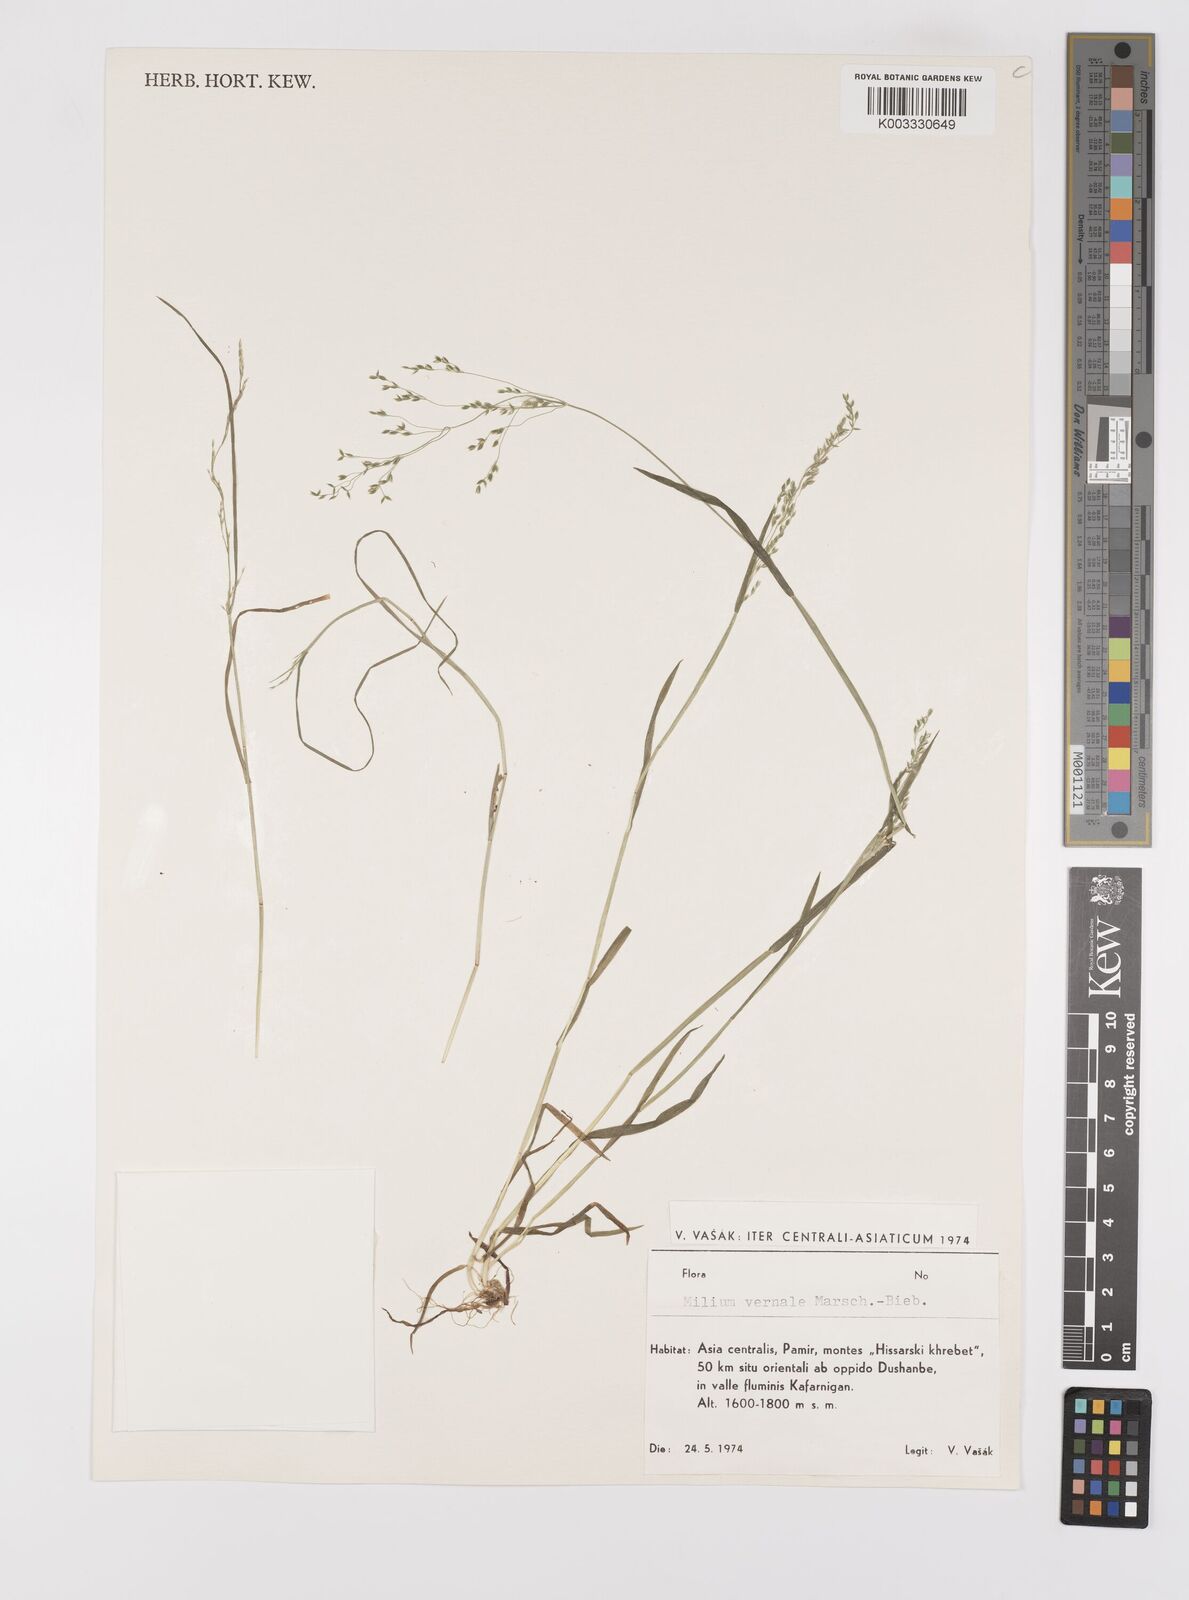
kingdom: Plantae
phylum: Tracheophyta
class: Liliopsida
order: Poales
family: Poaceae
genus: Milium
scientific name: Milium vernale
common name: Early millet
